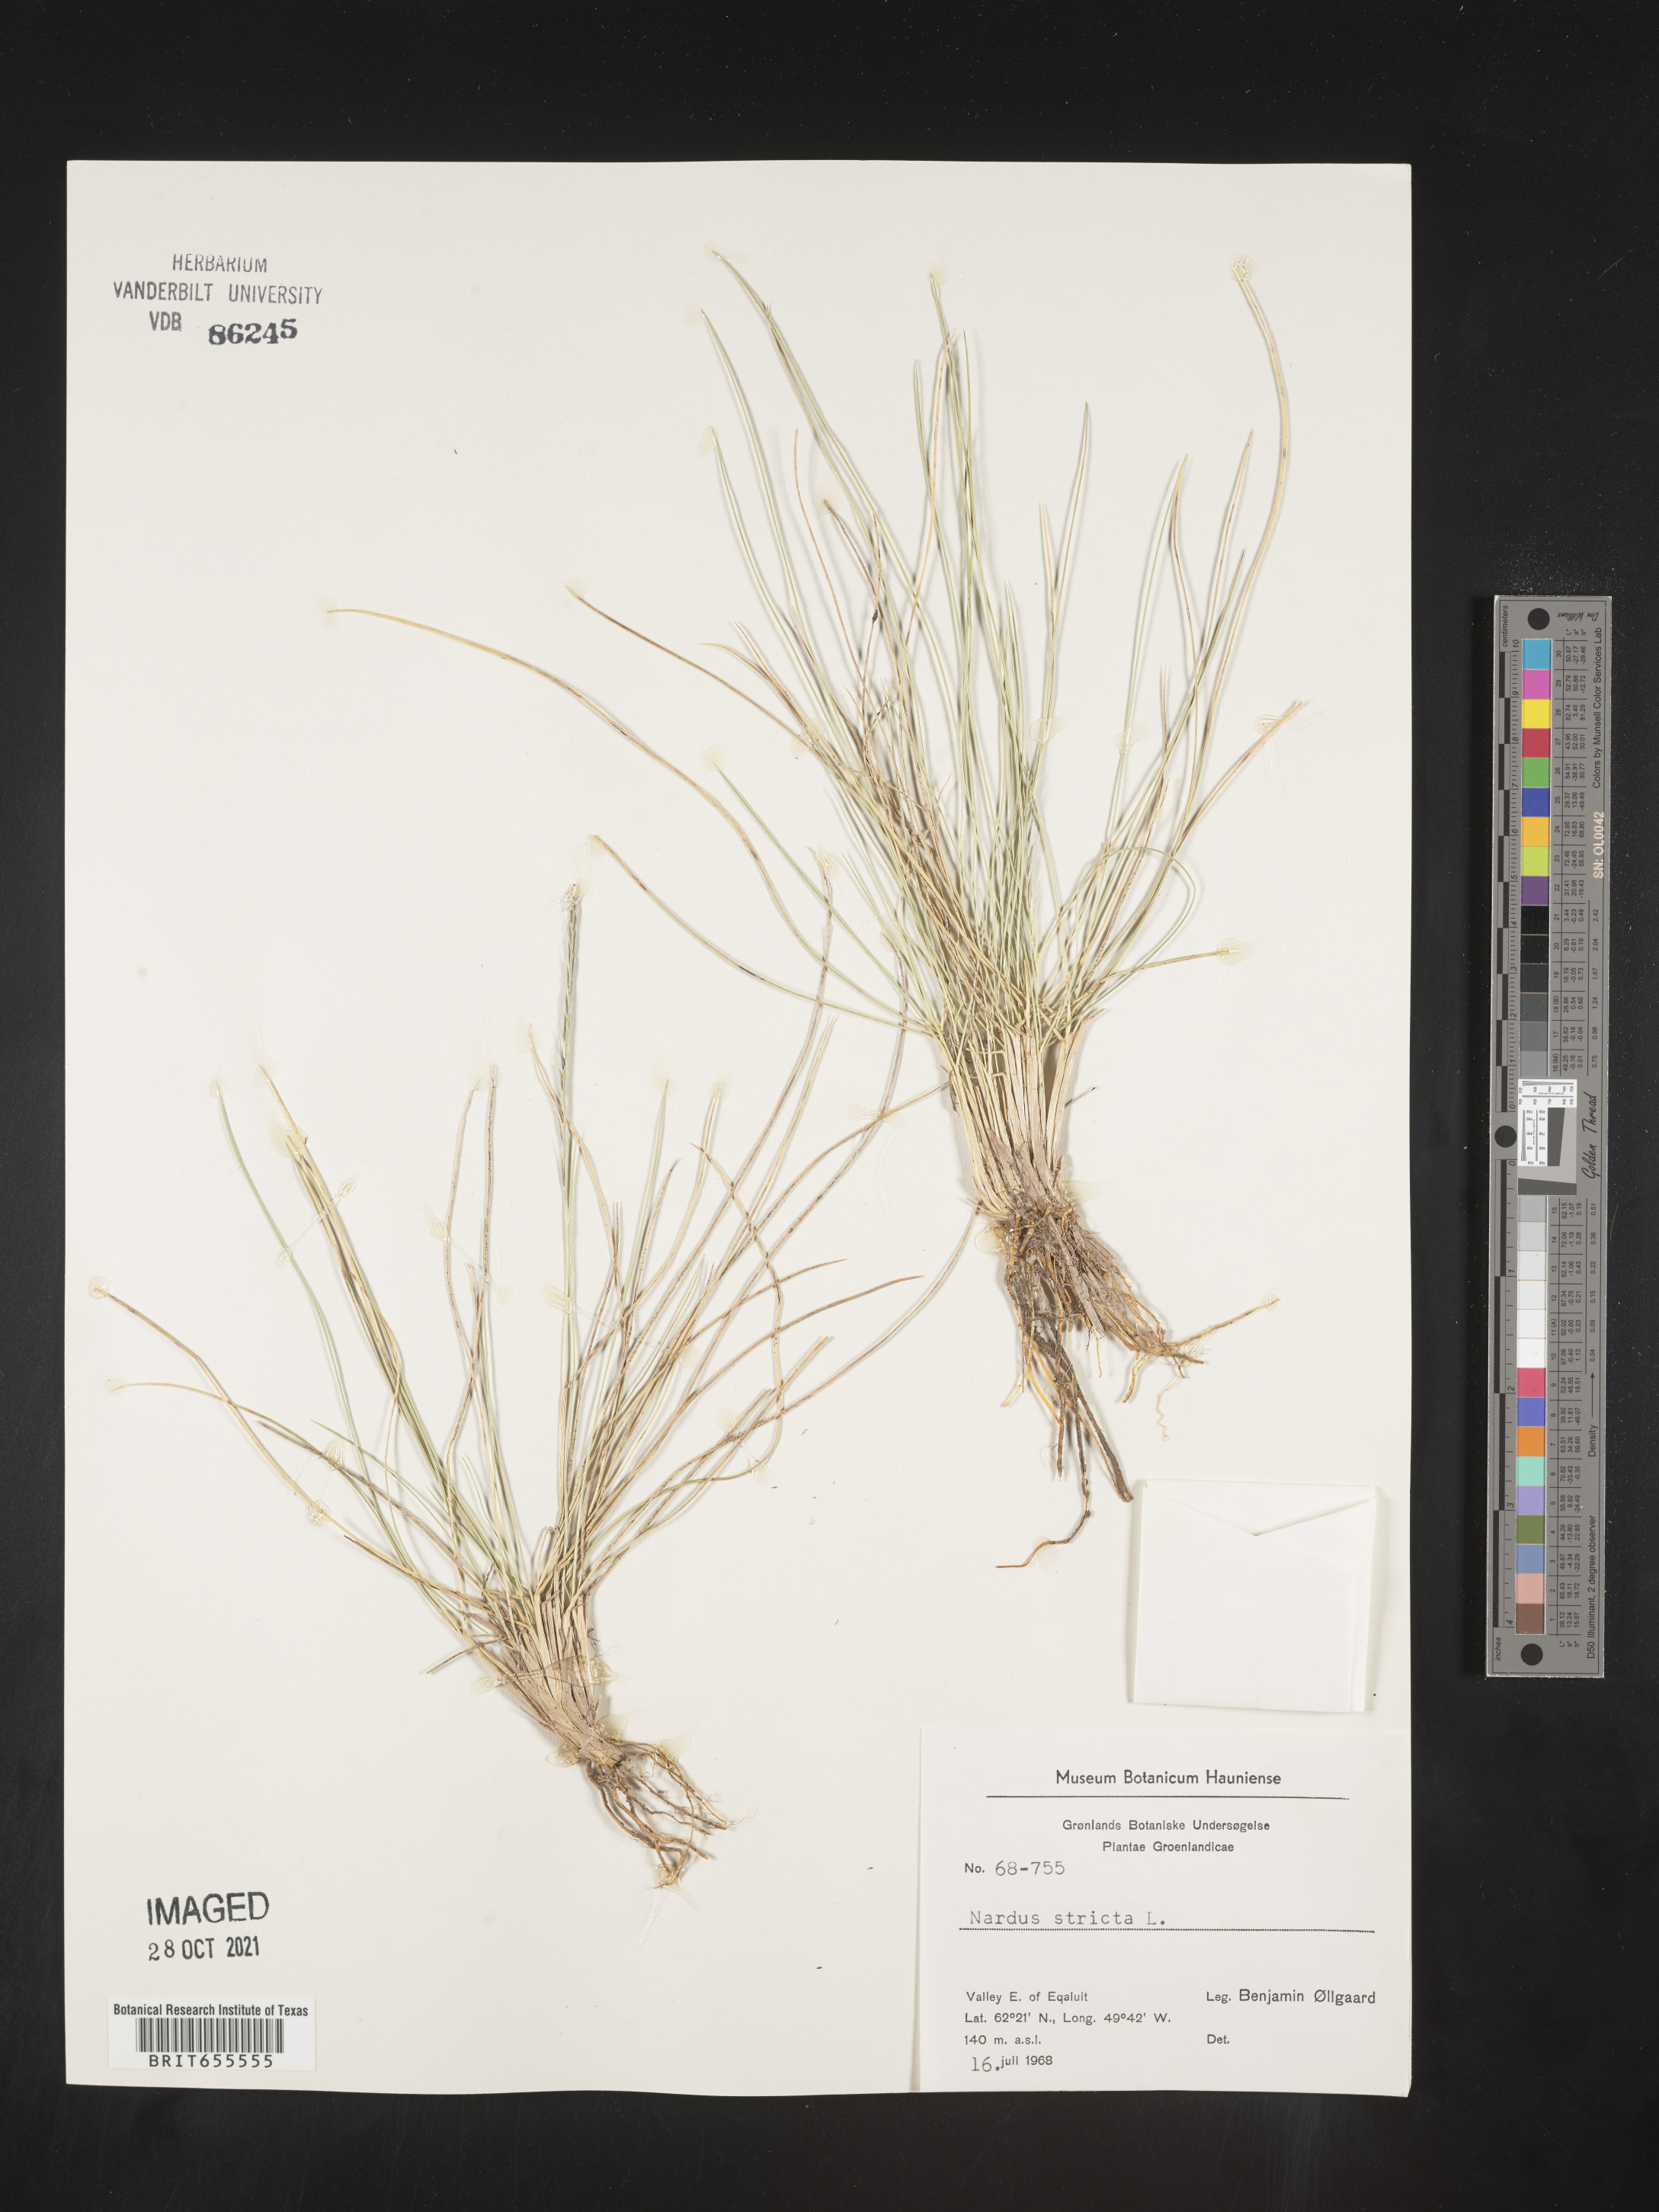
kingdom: Plantae
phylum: Tracheophyta
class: Liliopsida
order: Poales
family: Poaceae
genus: Nardus
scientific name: Nardus
